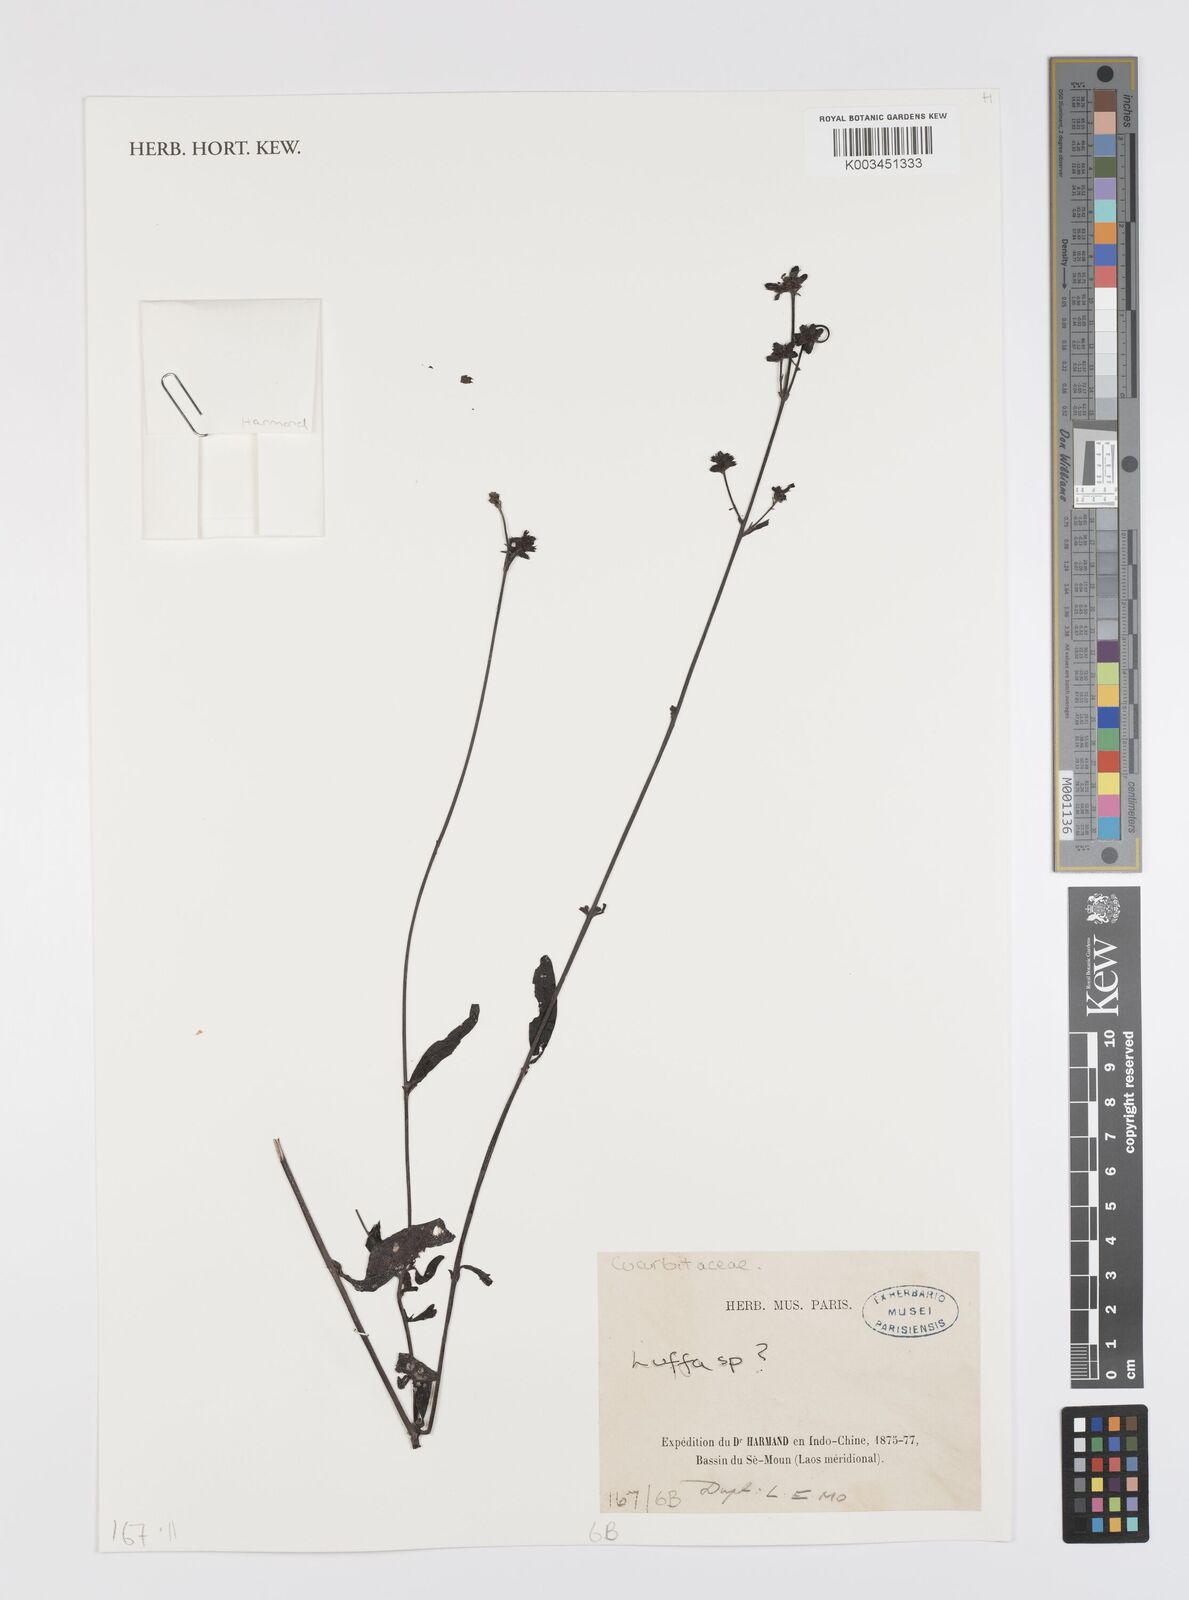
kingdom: Plantae
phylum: Tracheophyta
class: Magnoliopsida
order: Cucurbitales
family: Cucurbitaceae
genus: Luffa
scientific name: Luffa
